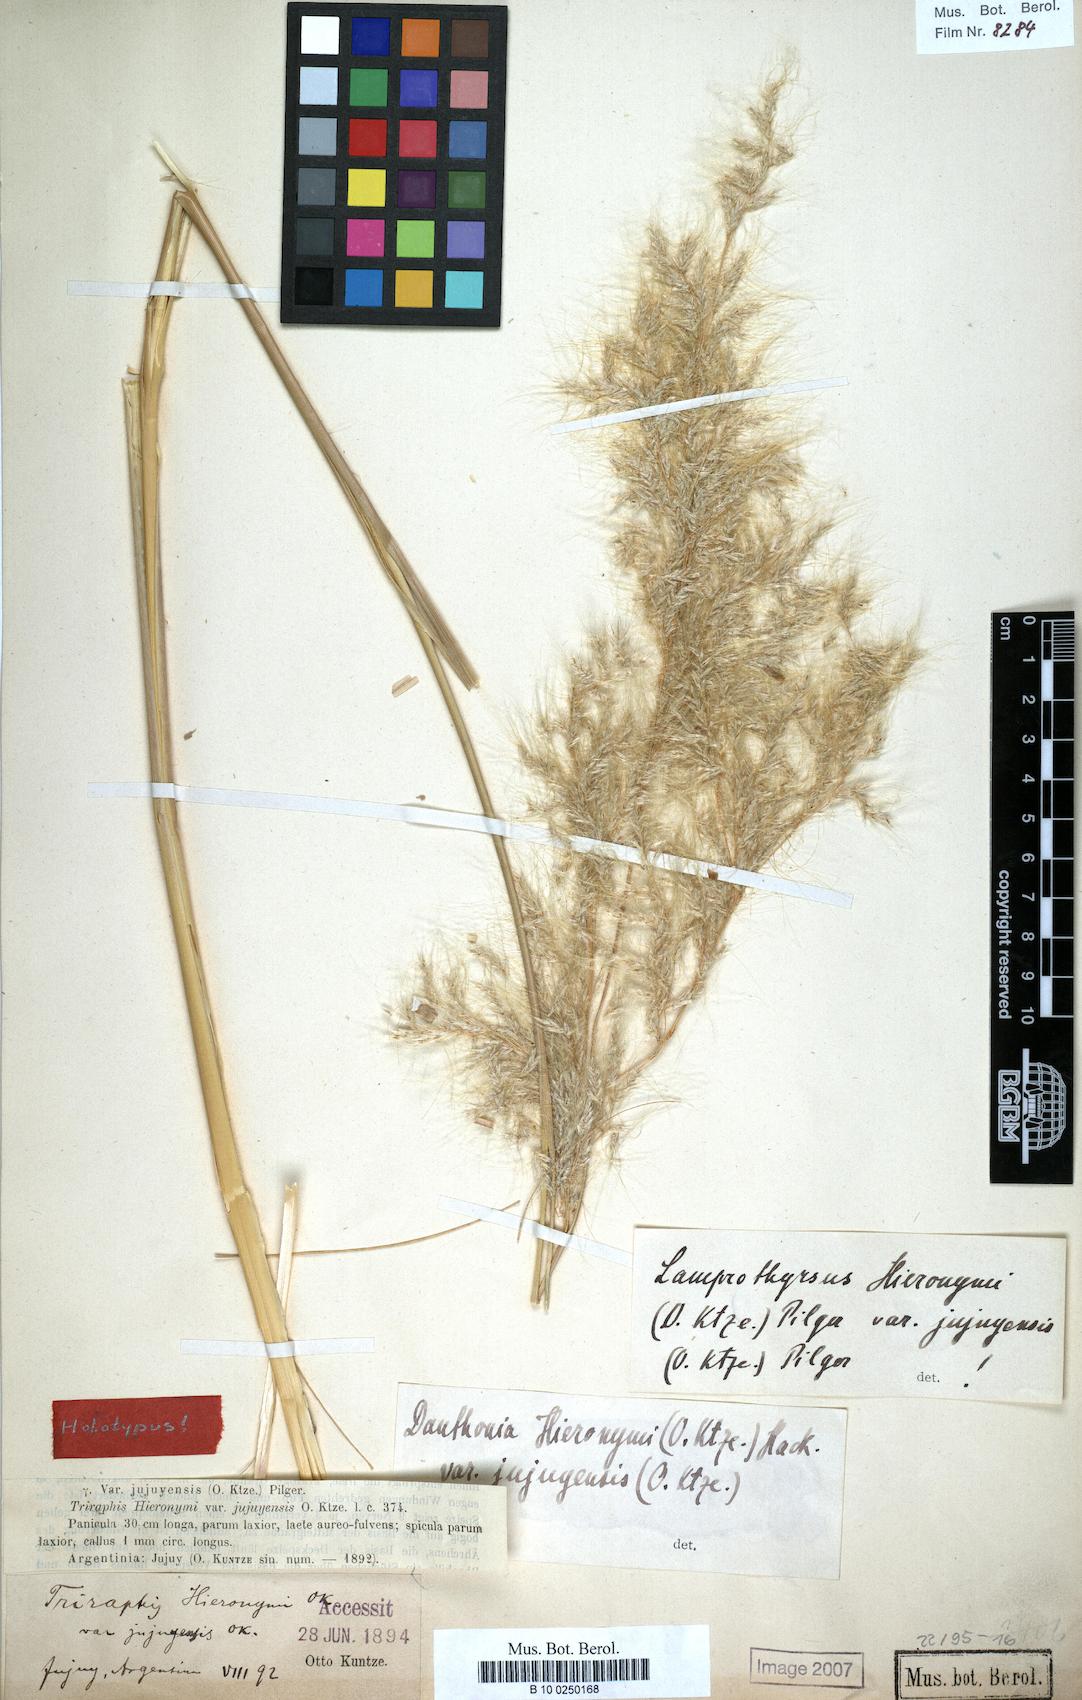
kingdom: Plantae
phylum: Tracheophyta
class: Liliopsida
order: Poales
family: Poaceae
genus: Cortaderia
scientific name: Cortaderia hieronymi
